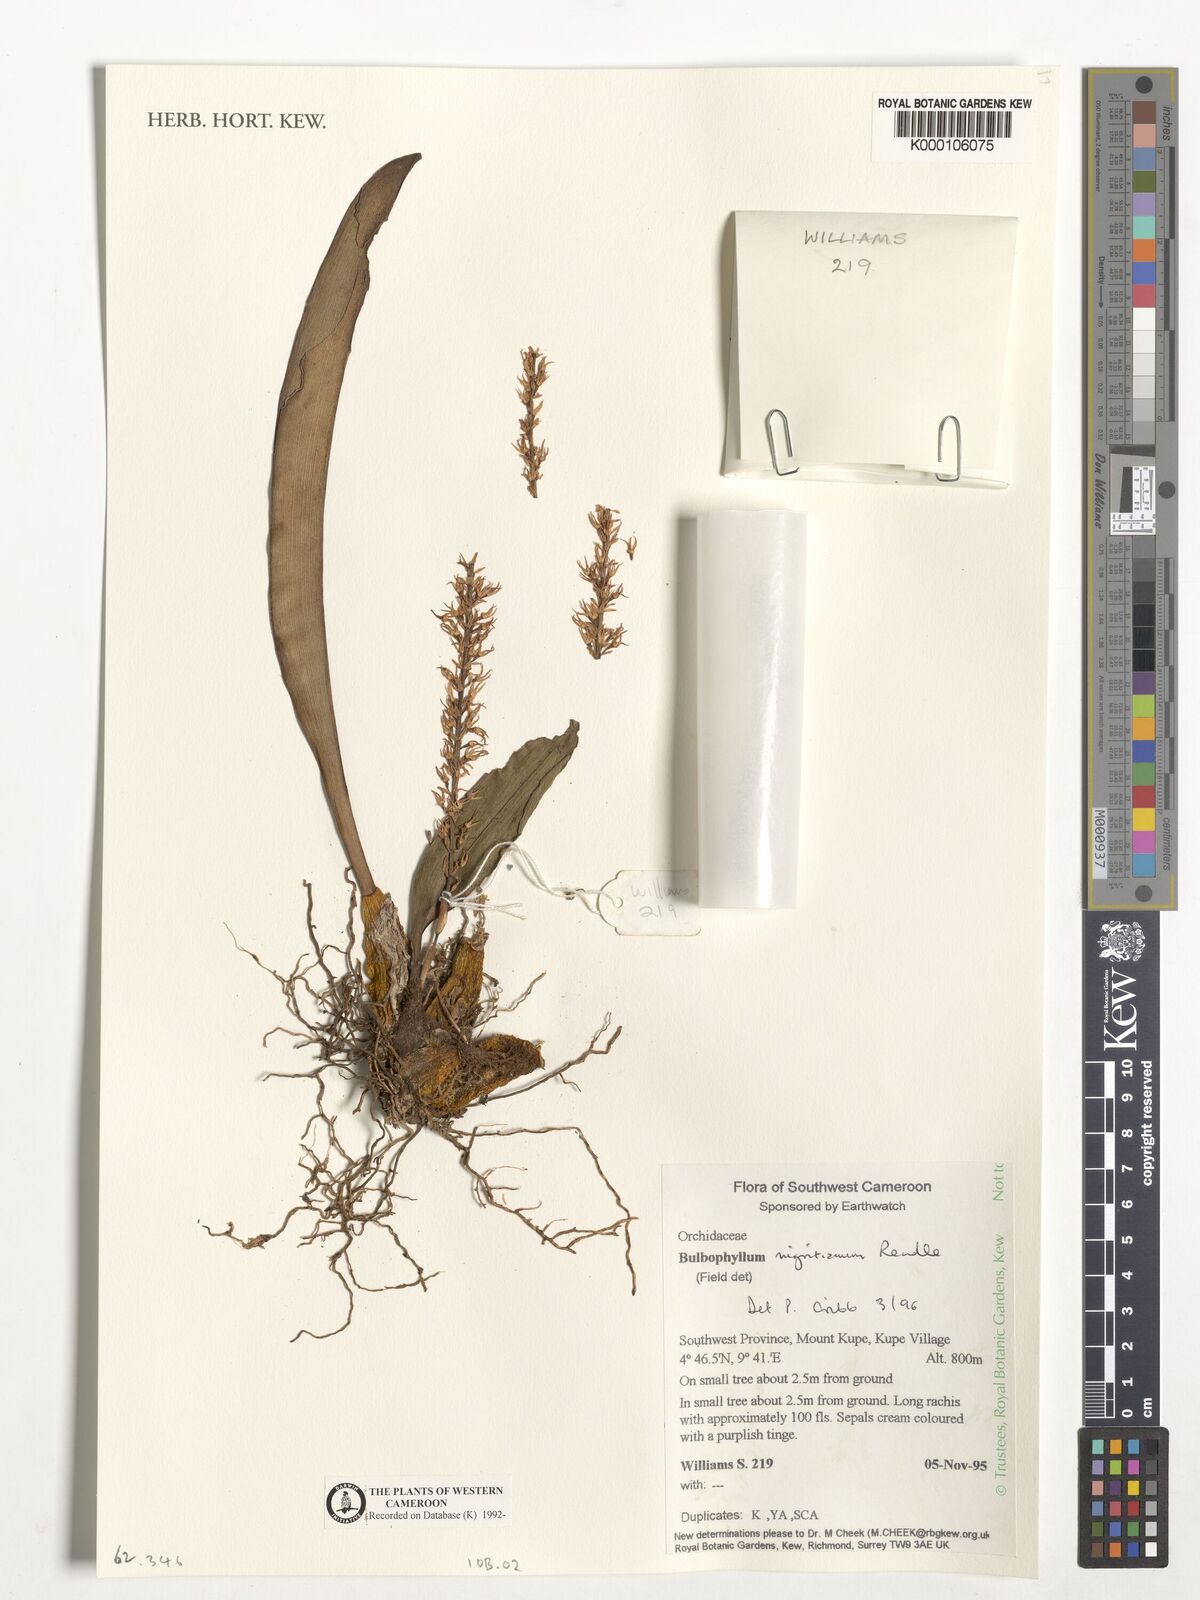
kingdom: Plantae
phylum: Tracheophyta
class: Liliopsida
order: Asparagales
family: Orchidaceae
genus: Bulbophyllum
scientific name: Bulbophyllum nigritianum
